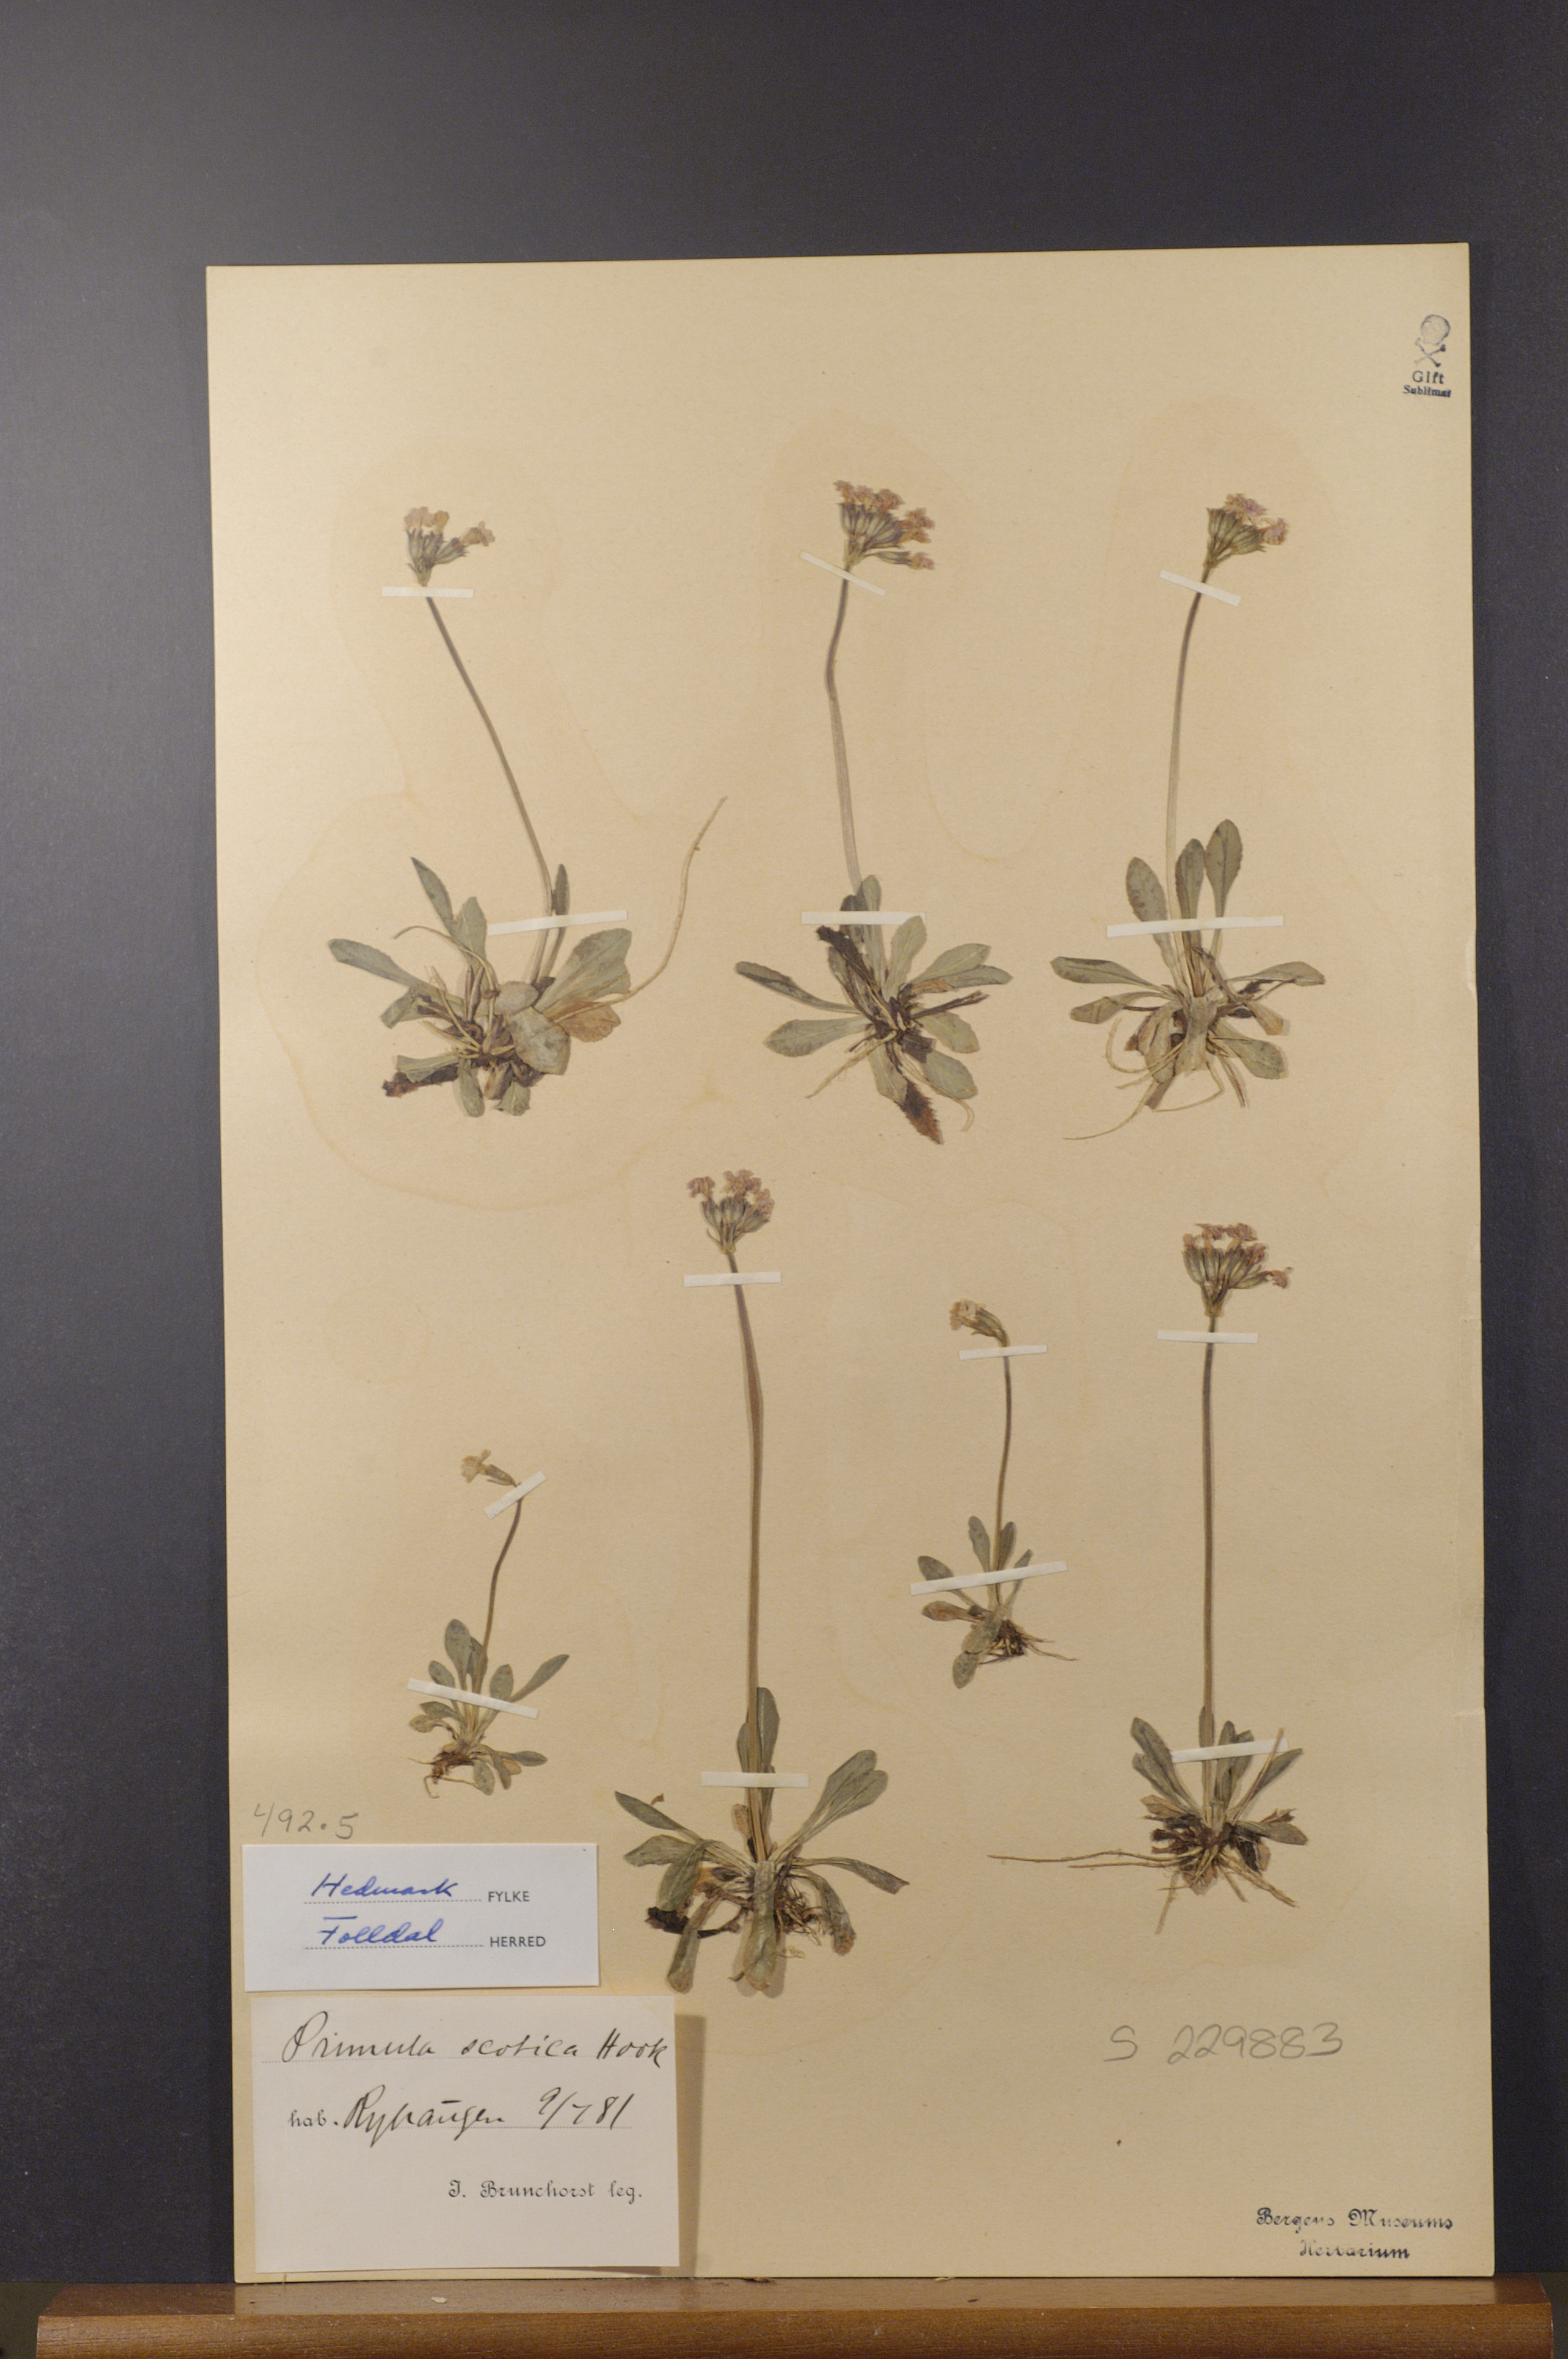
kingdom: Plantae
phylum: Tracheophyta
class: Magnoliopsida
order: Ericales
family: Primulaceae
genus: Primula
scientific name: Primula scotica
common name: Scottish primrose
